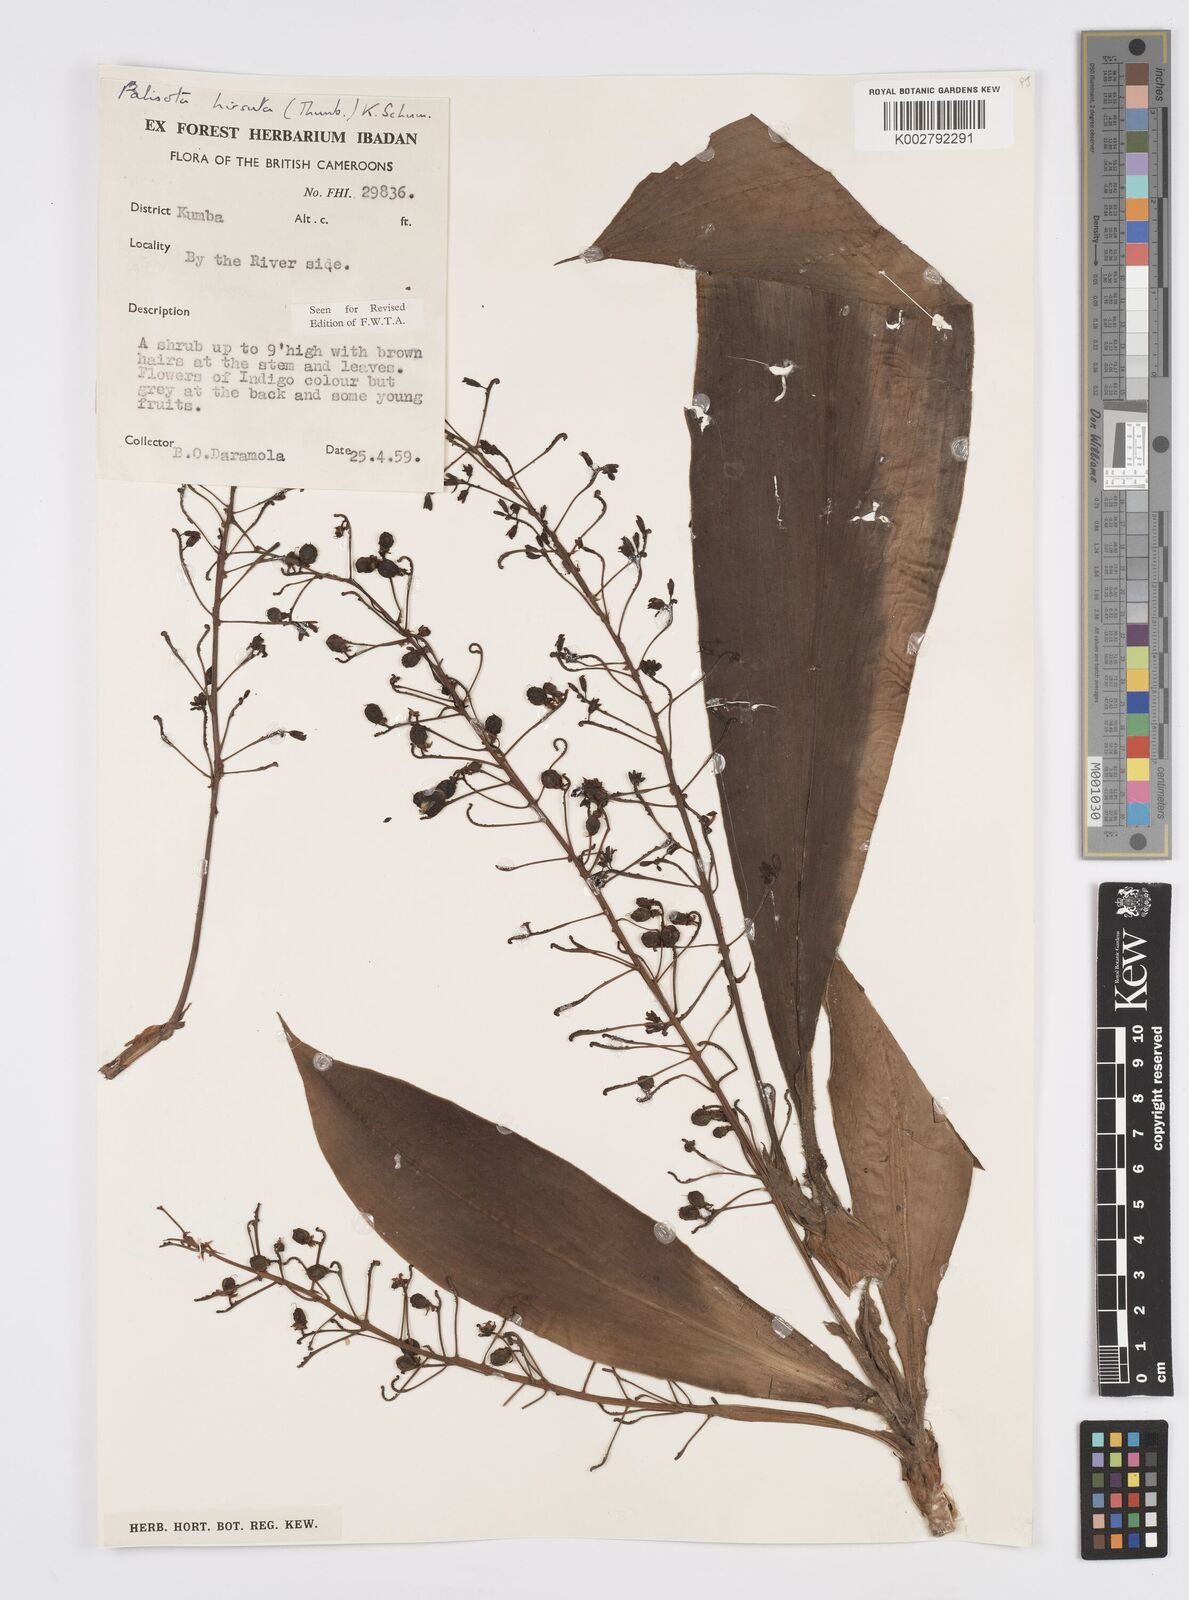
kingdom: Plantae
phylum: Tracheophyta
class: Liliopsida
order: Commelinales
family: Commelinaceae
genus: Palisota
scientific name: Palisota hirsuta
